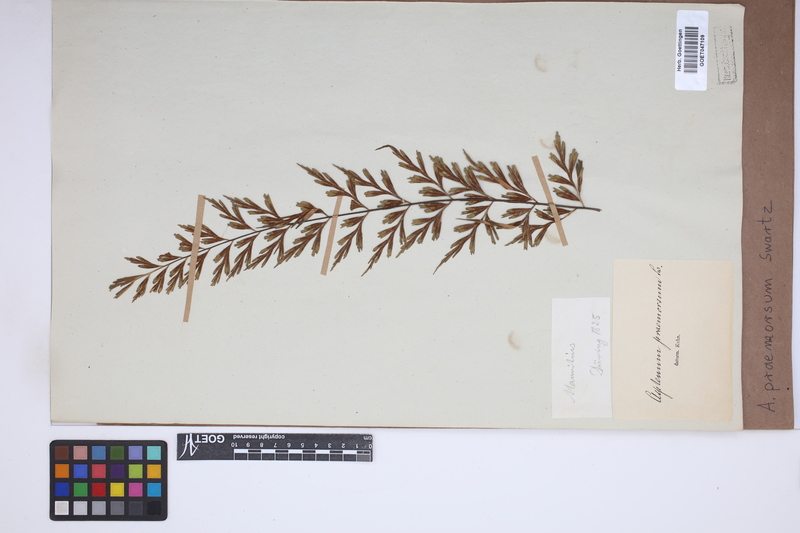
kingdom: Plantae
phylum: Tracheophyta
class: Polypodiopsida
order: Polypodiales
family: Aspleniaceae
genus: Asplenium
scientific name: Asplenium praemorsum
